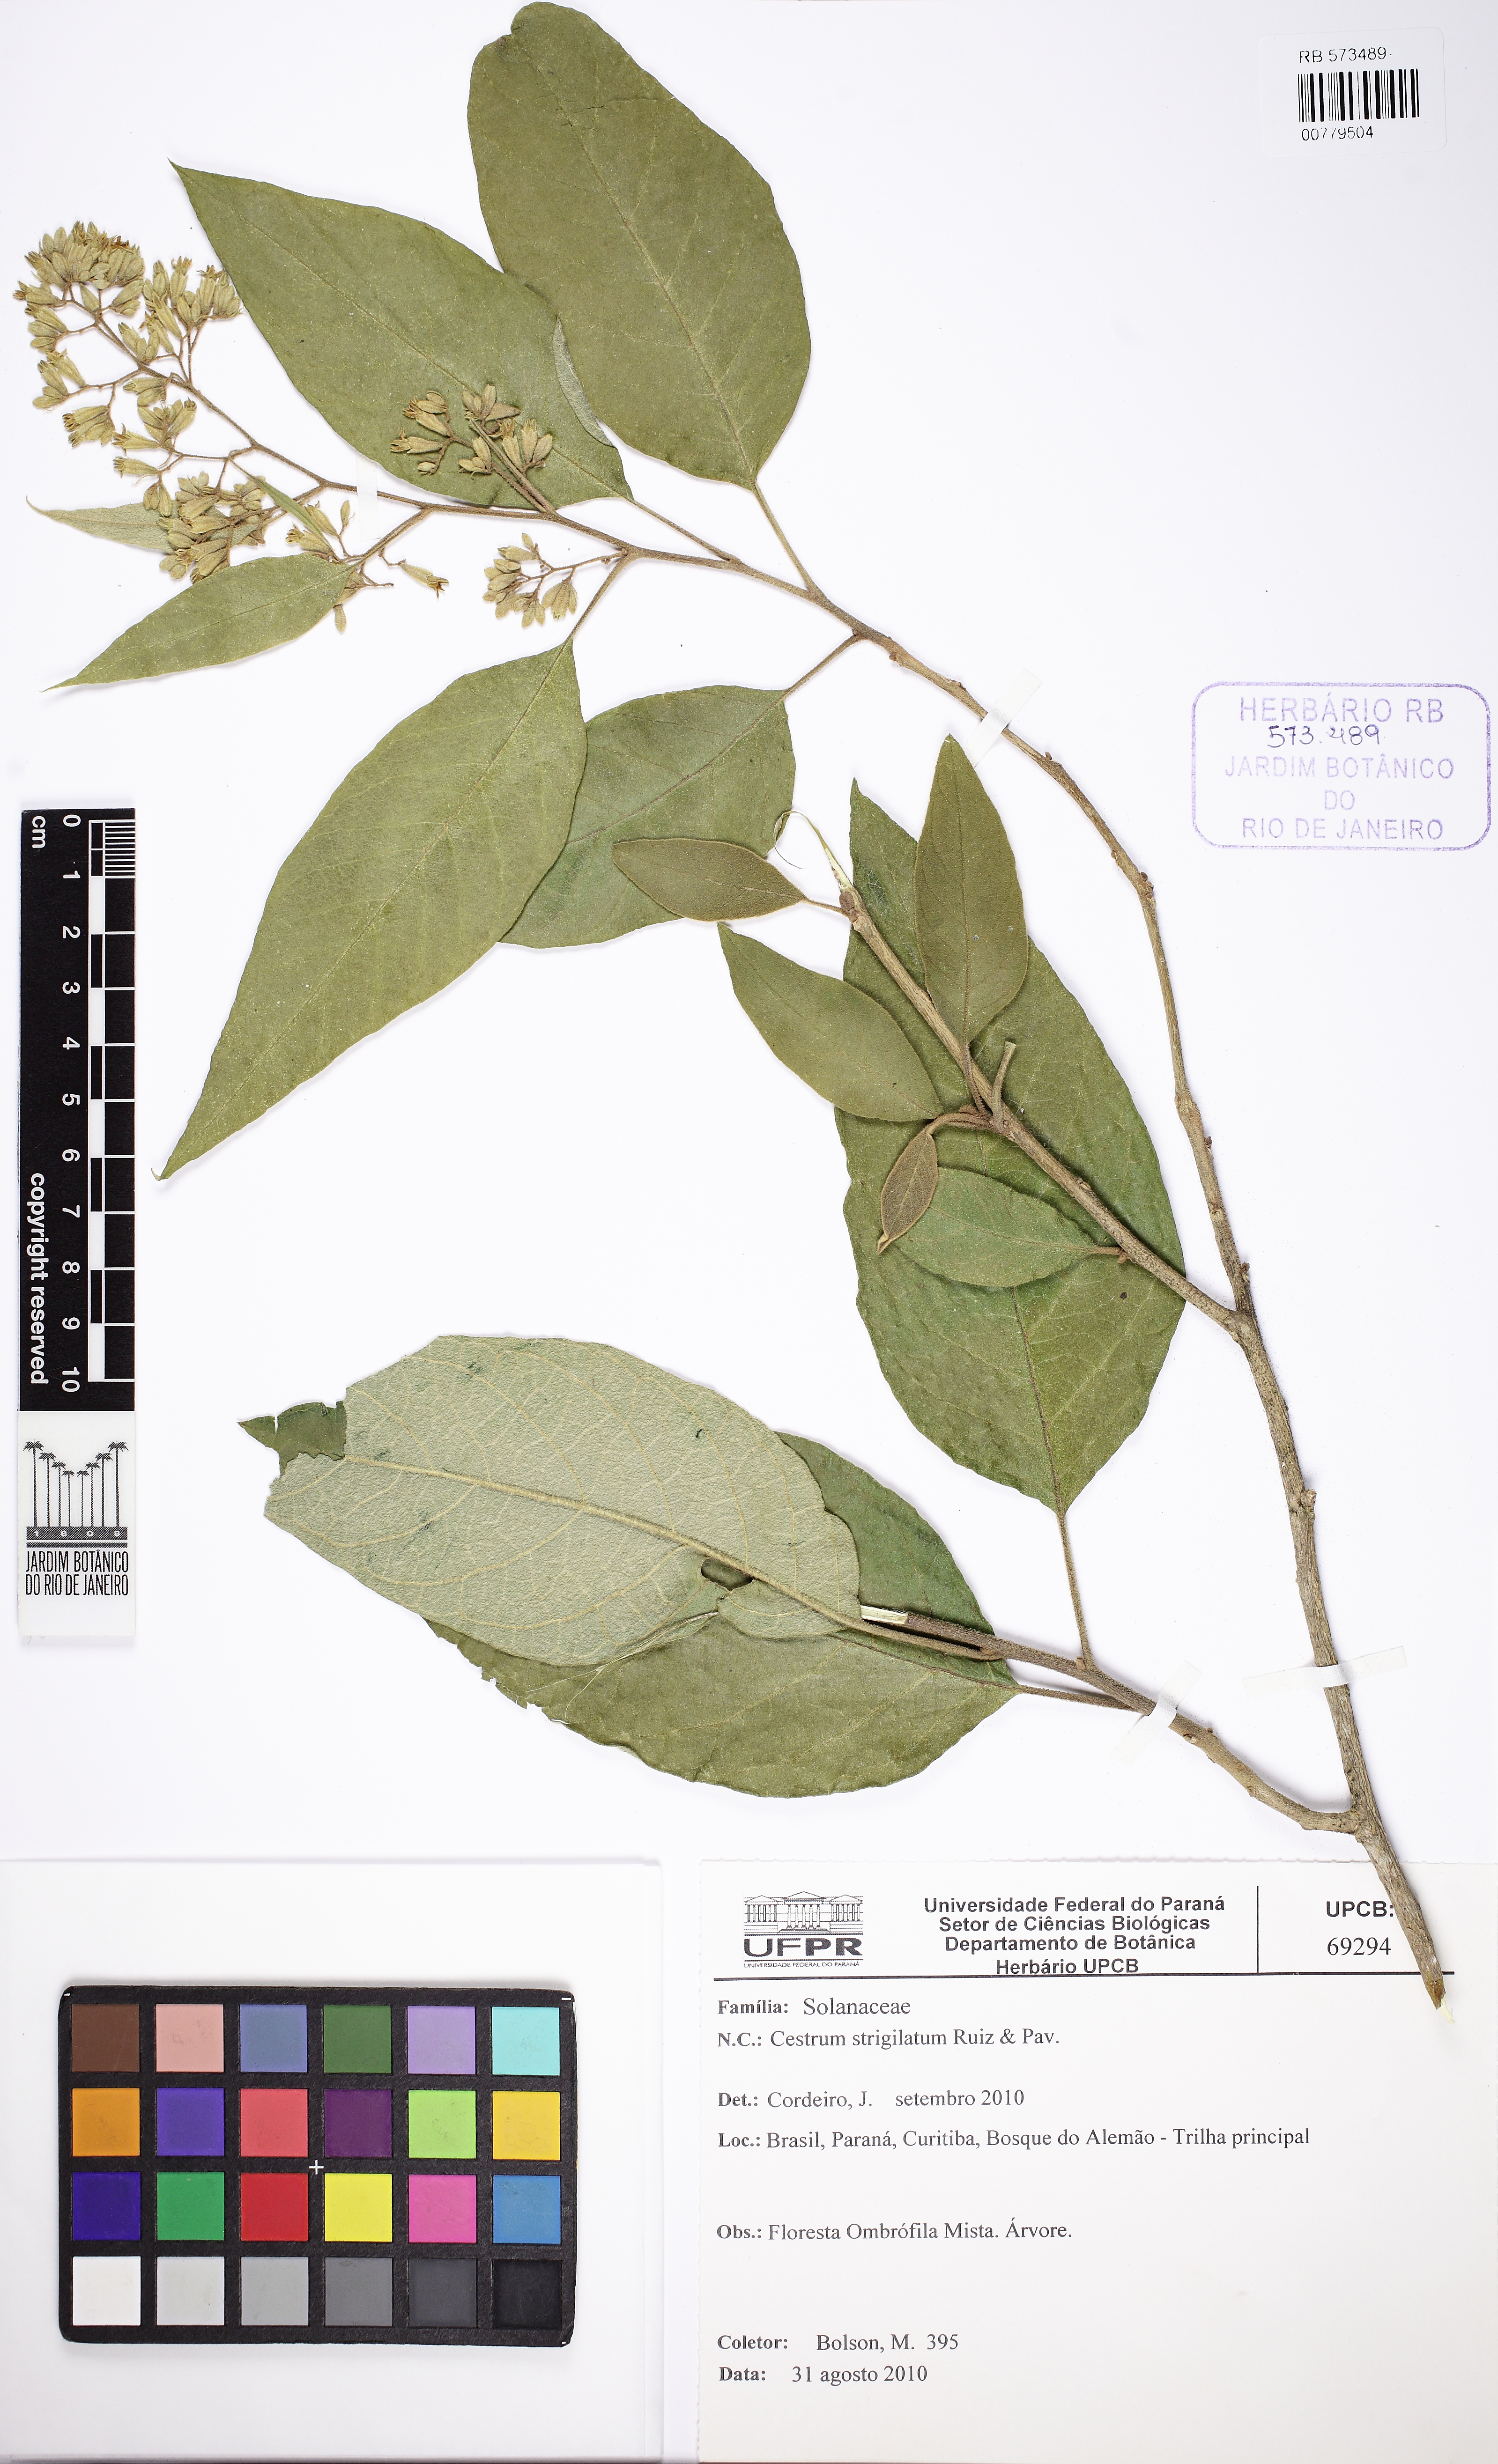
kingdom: Plantae
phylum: Tracheophyta
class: Magnoliopsida
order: Solanales
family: Solanaceae
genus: Cestrum
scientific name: Cestrum strigillatum
